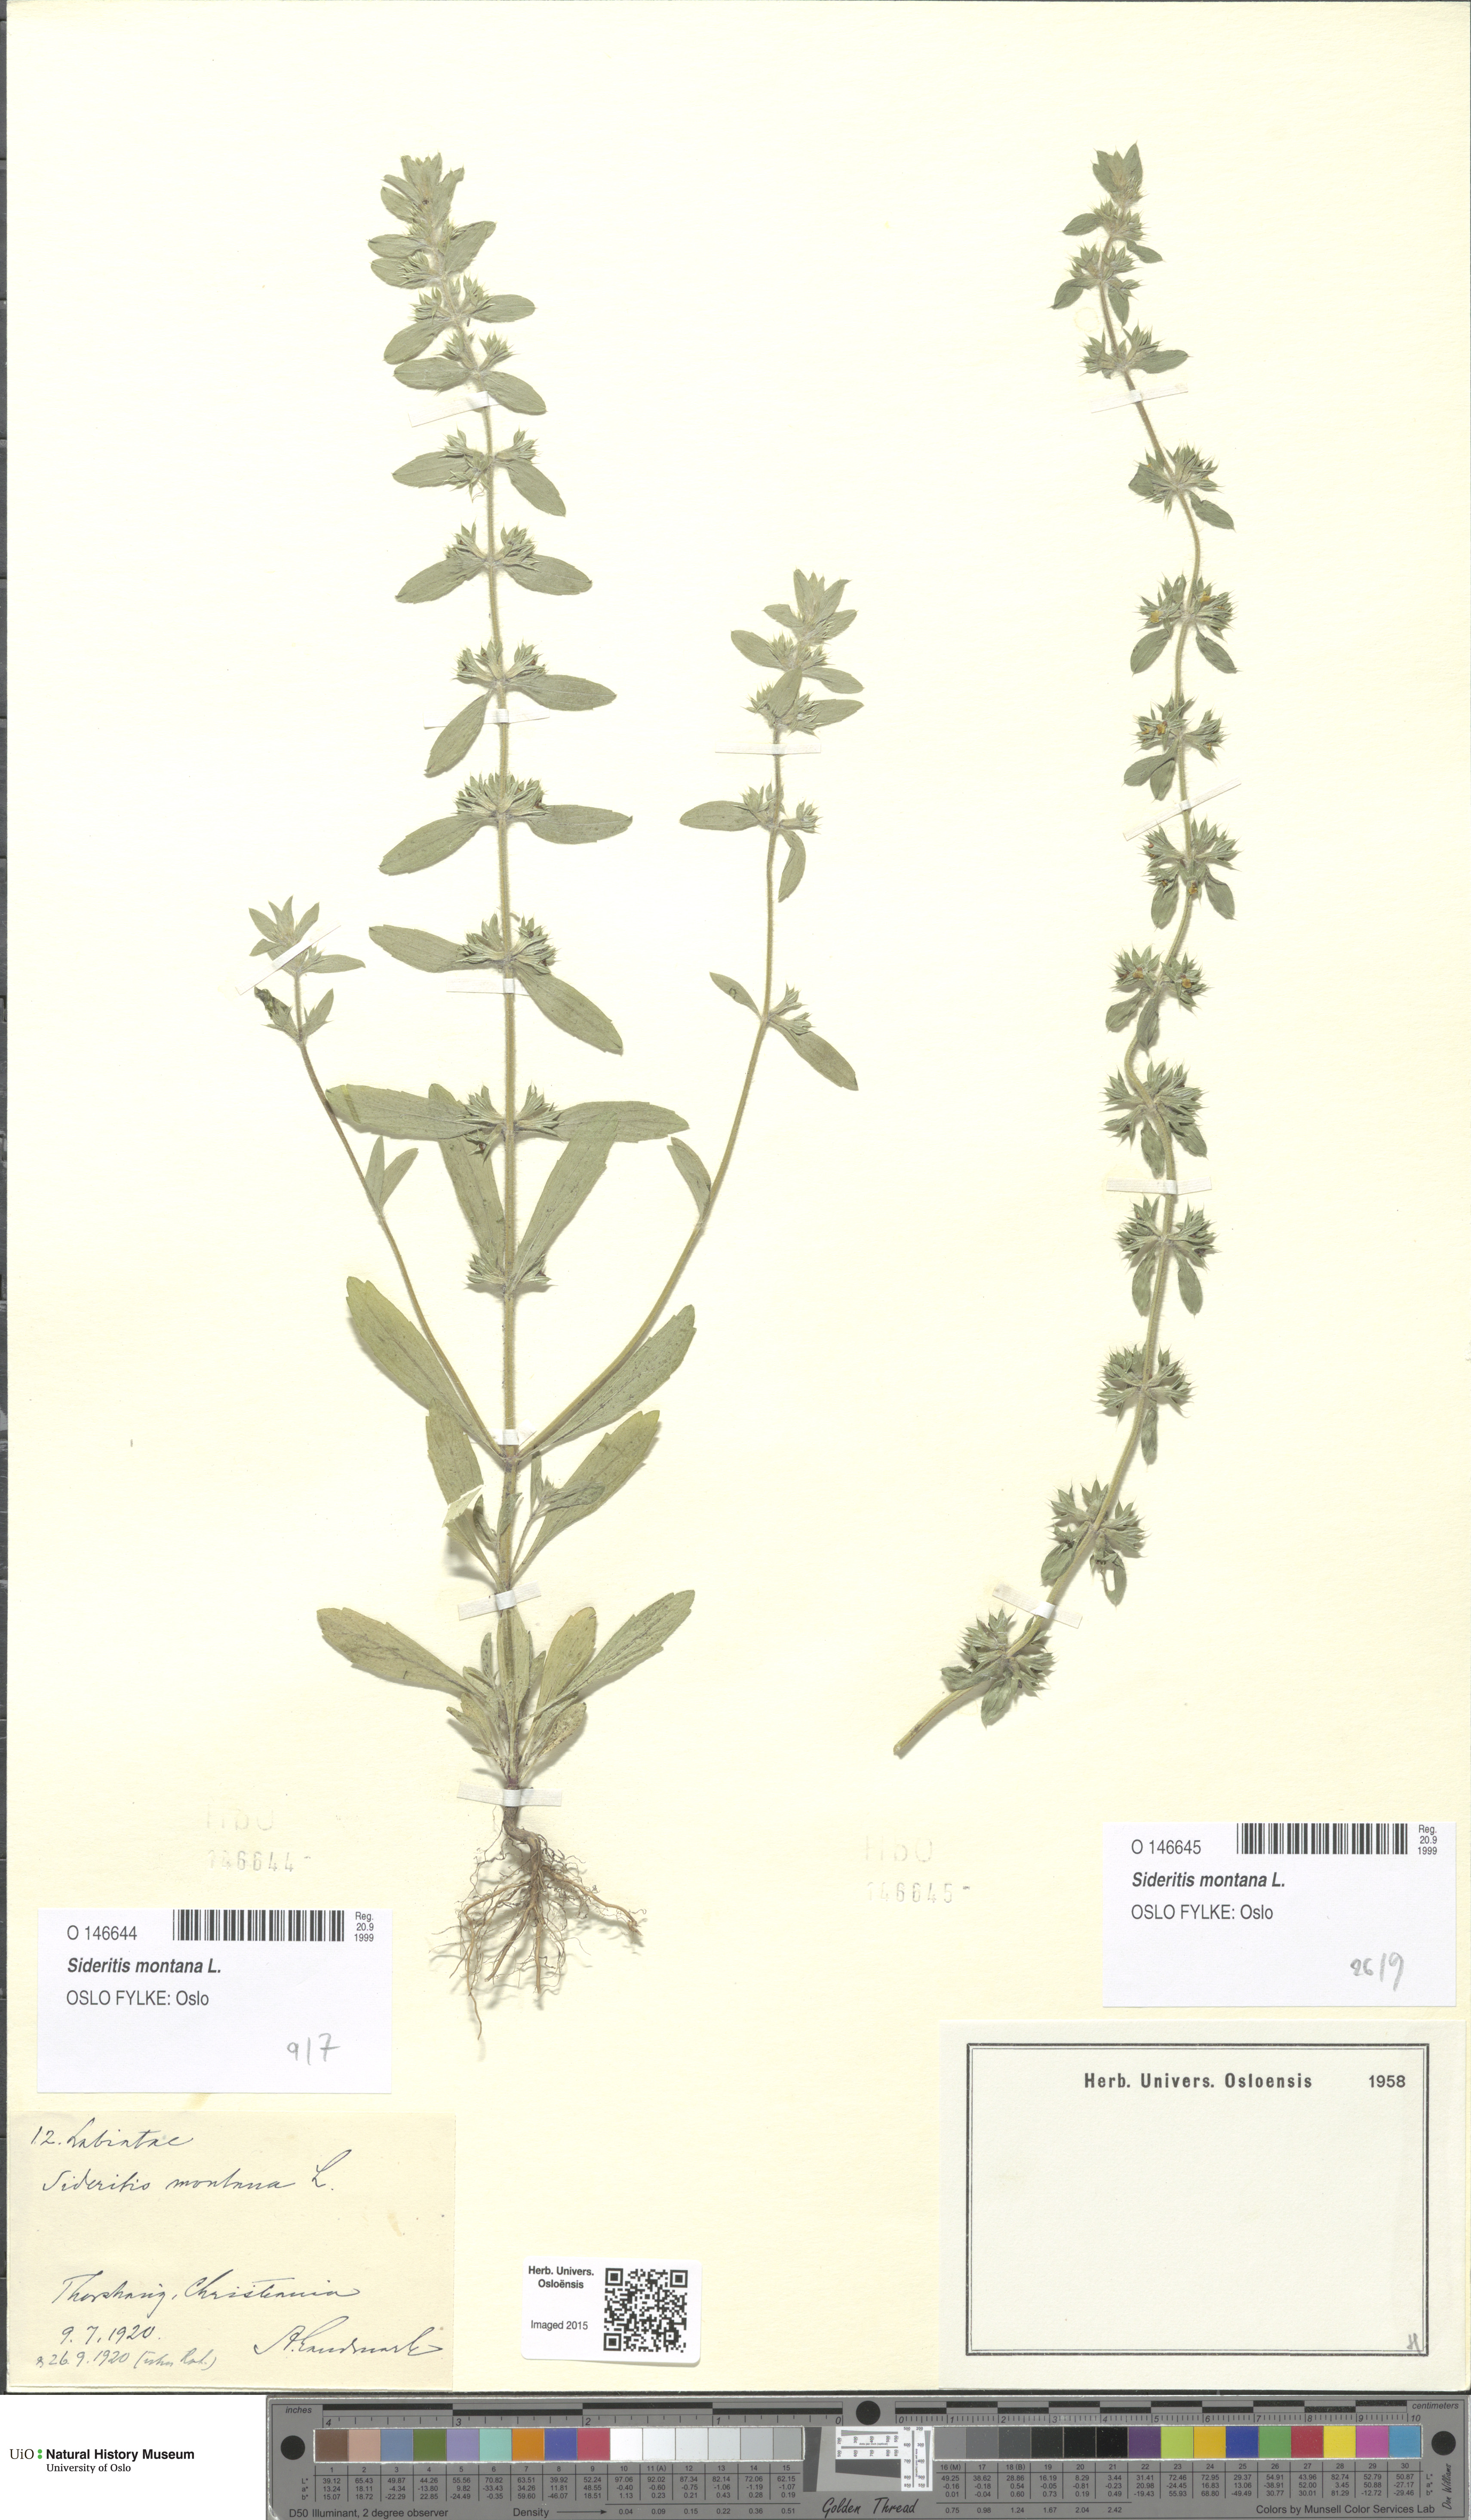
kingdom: Plantae
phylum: Tracheophyta
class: Magnoliopsida
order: Lamiales
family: Lamiaceae
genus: Sideritis
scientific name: Sideritis montana
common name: Mountain ironwort
